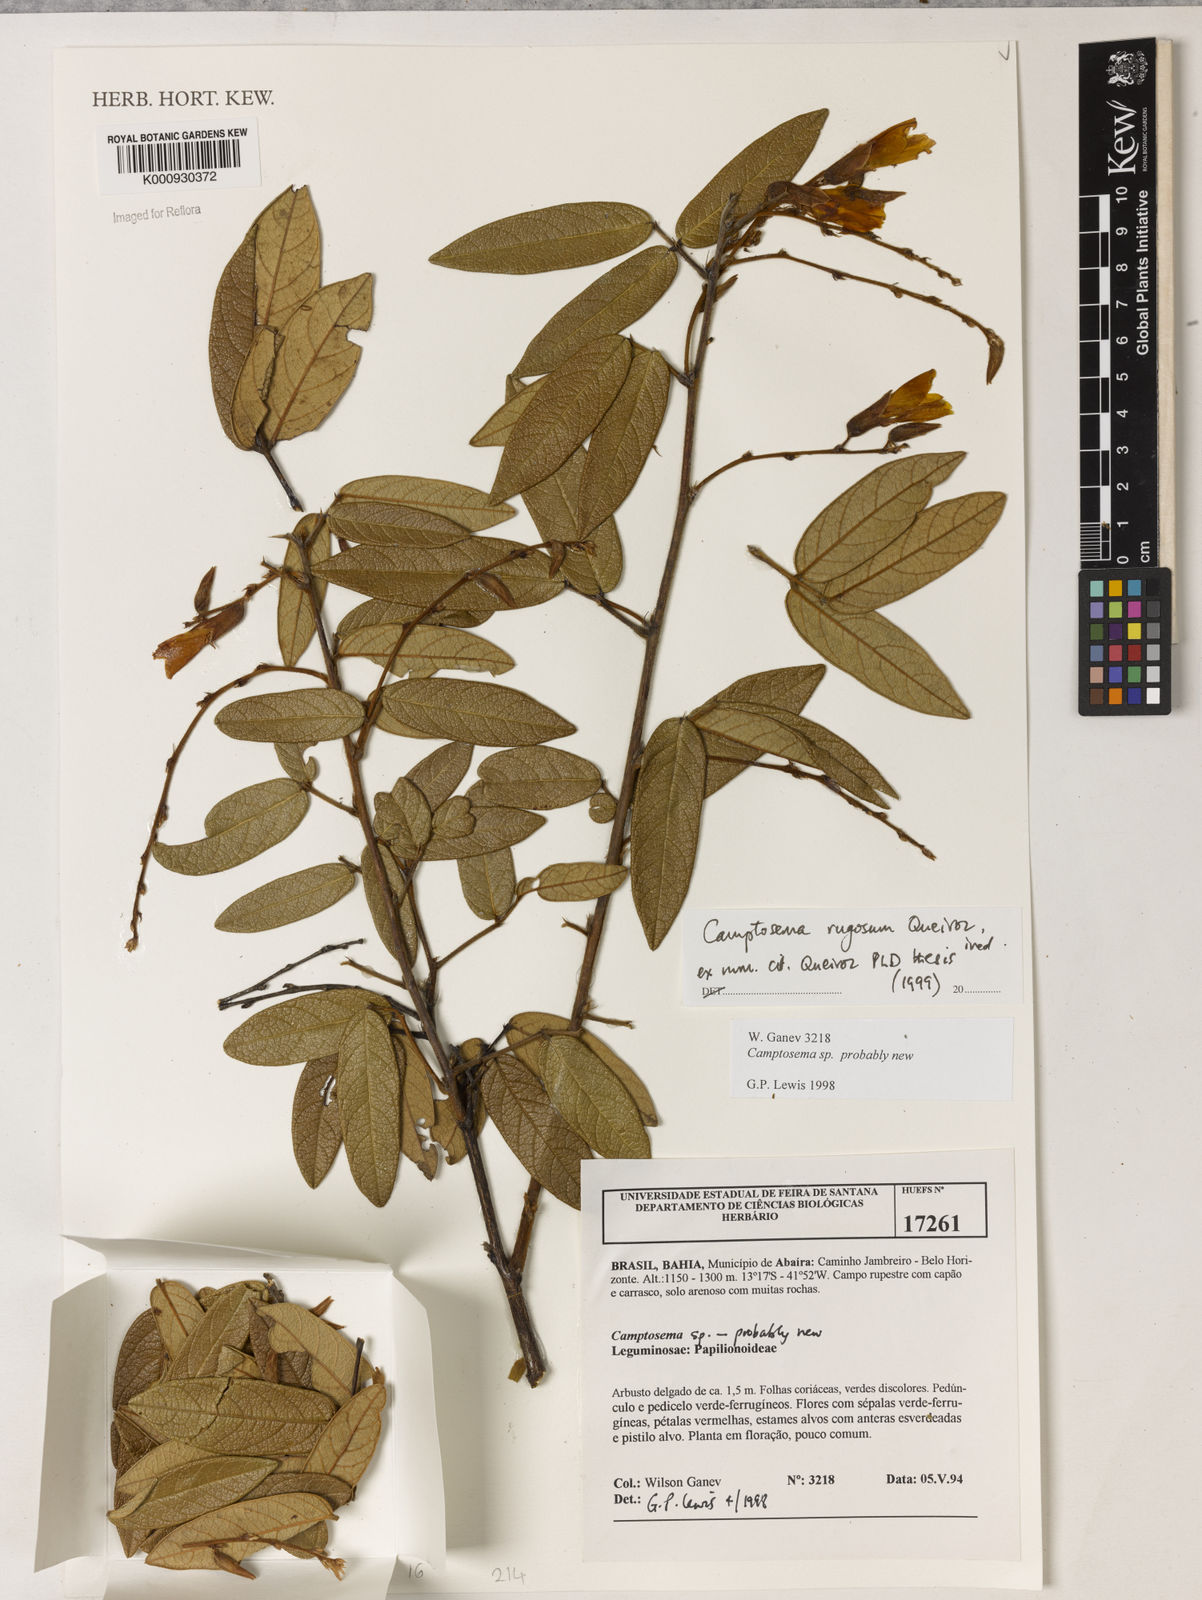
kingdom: Plantae
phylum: Tracheophyta
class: Magnoliopsida
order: Fabales
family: Fabaceae
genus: Camptosema
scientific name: Camptosema
